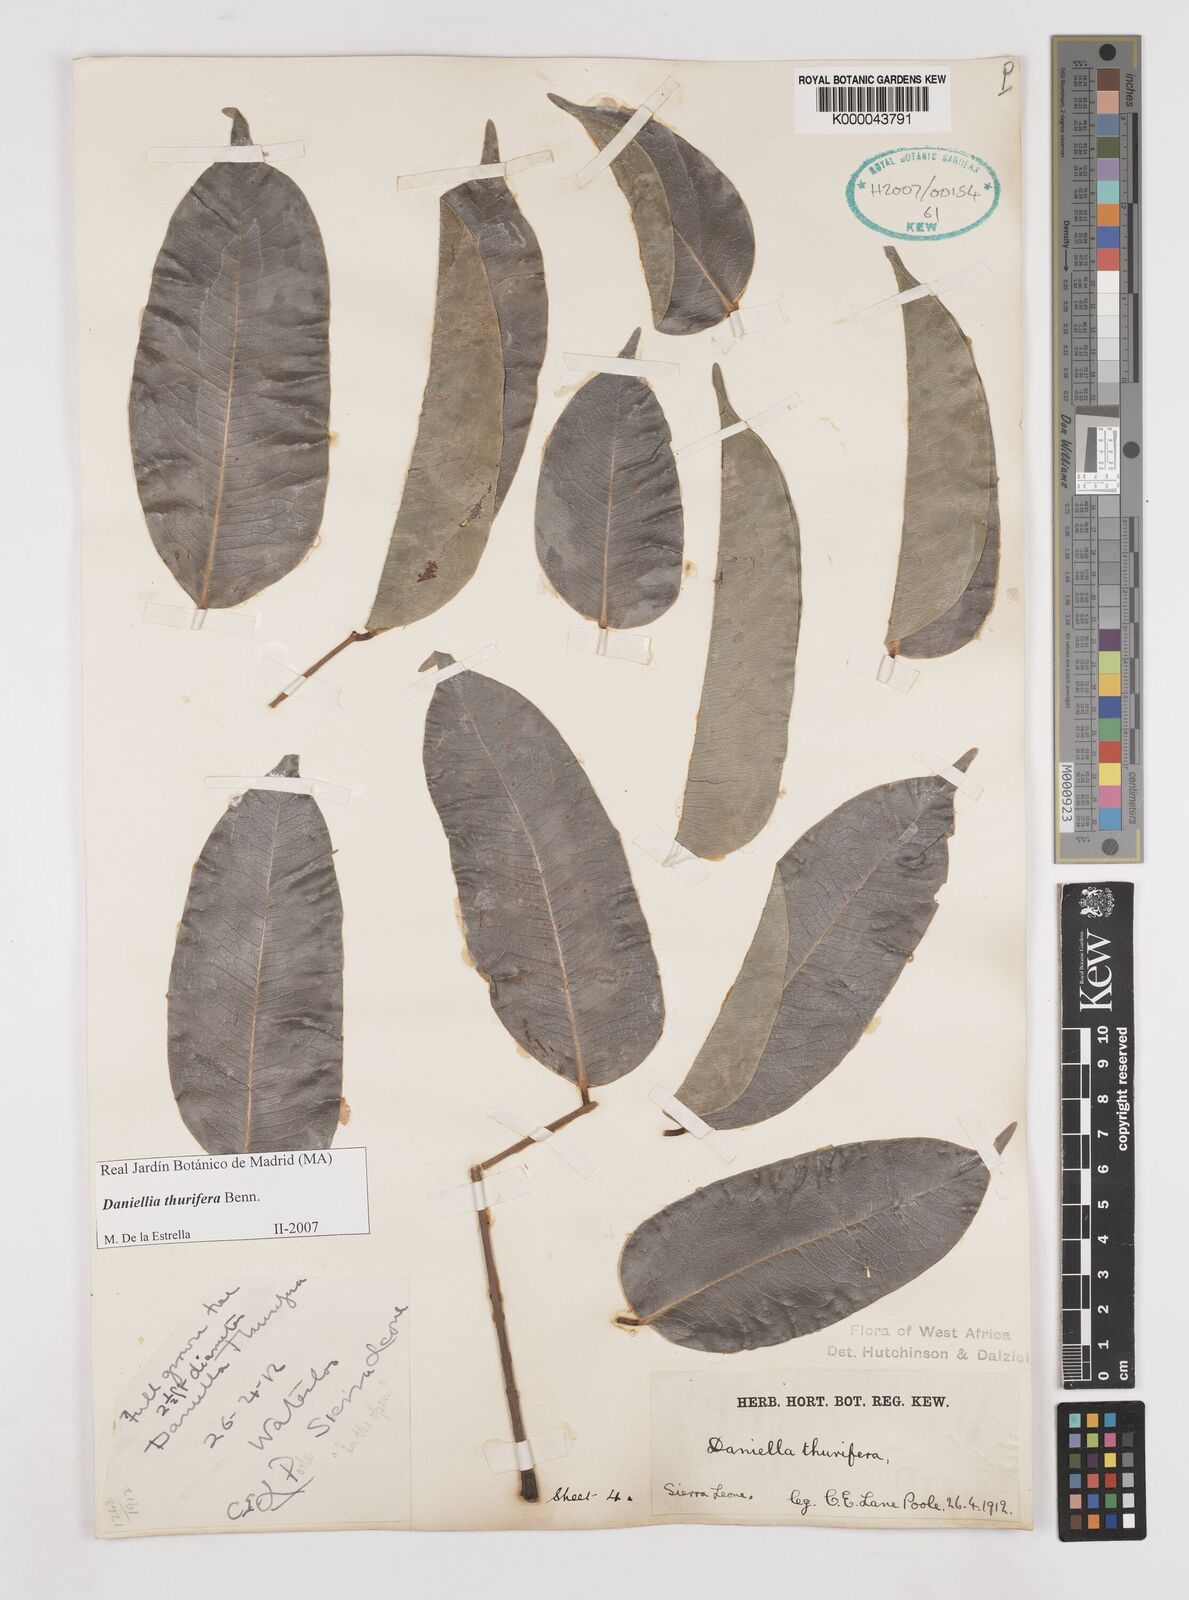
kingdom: Plantae
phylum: Tracheophyta
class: Magnoliopsida
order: Fabales
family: Fabaceae
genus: Daniellia
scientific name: Daniellia thurifera
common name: Sudan copal
